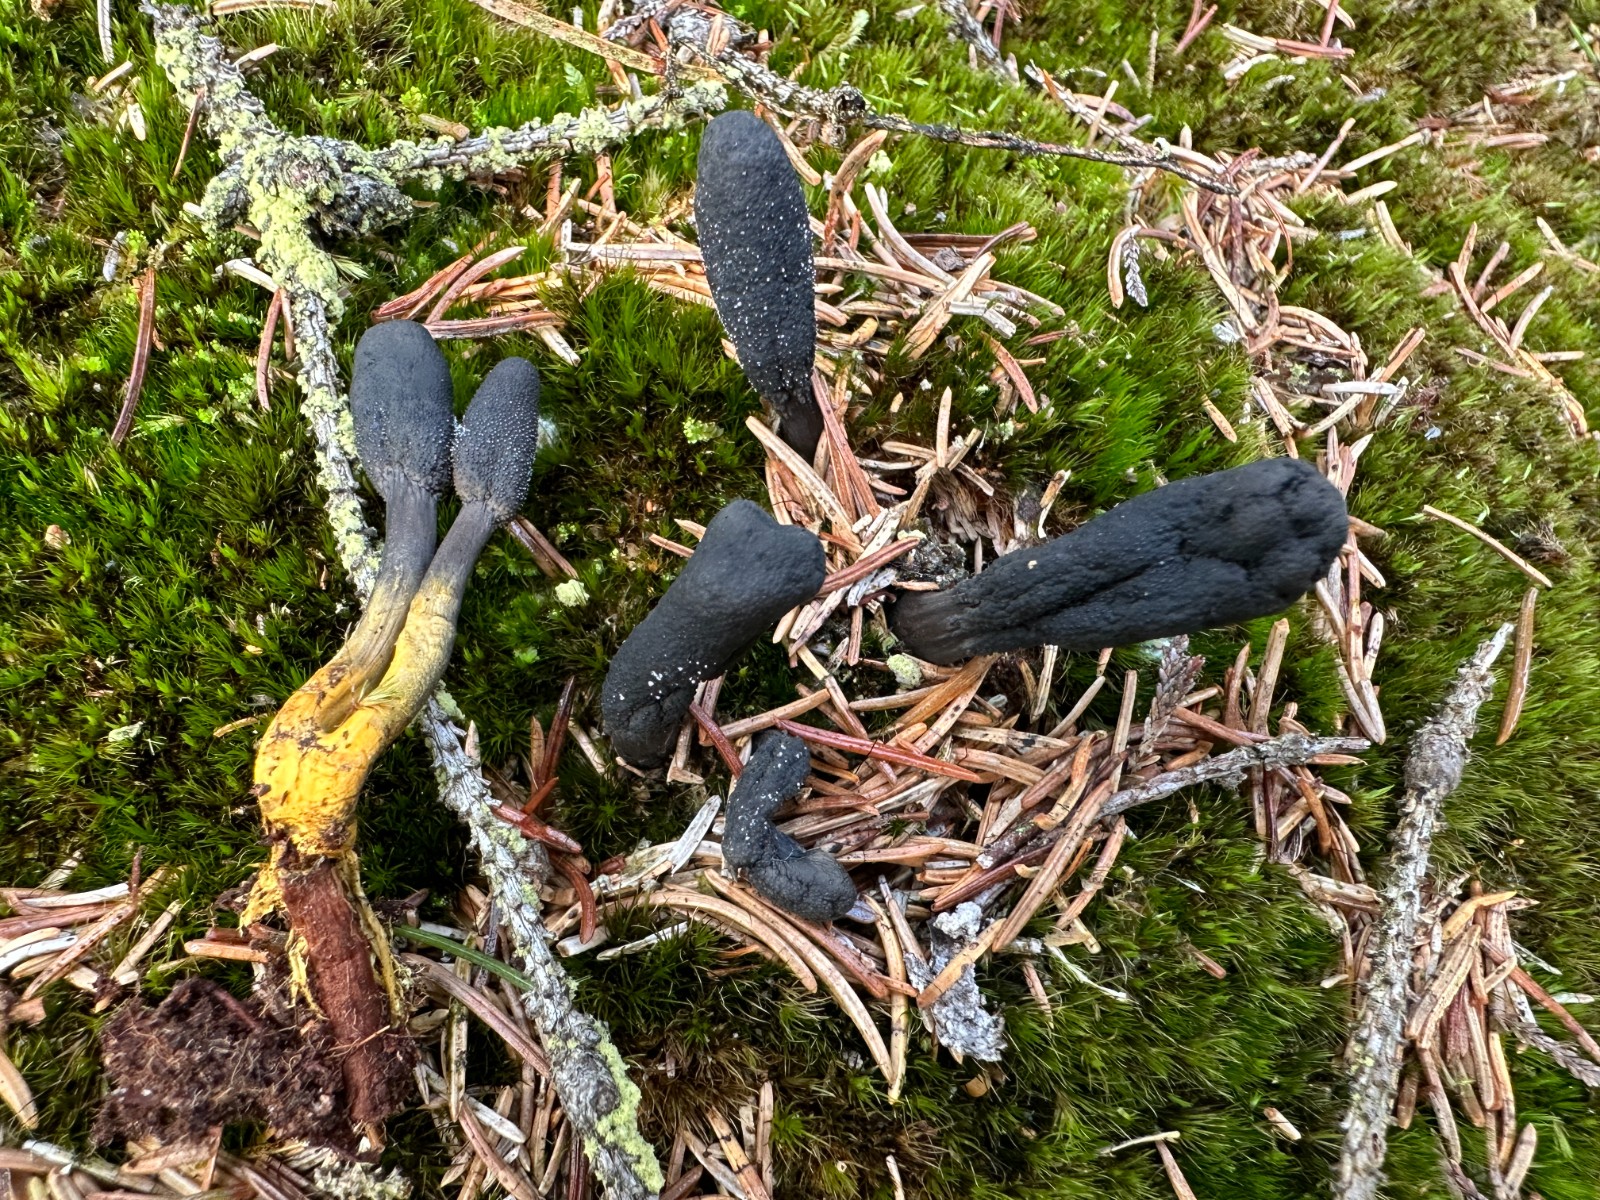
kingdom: Fungi
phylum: Ascomycota
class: Sordariomycetes
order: Hypocreales
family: Ophiocordycipitaceae
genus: Tolypocladium
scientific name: Tolypocladium ophioglossoides
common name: slank snyltekølle
